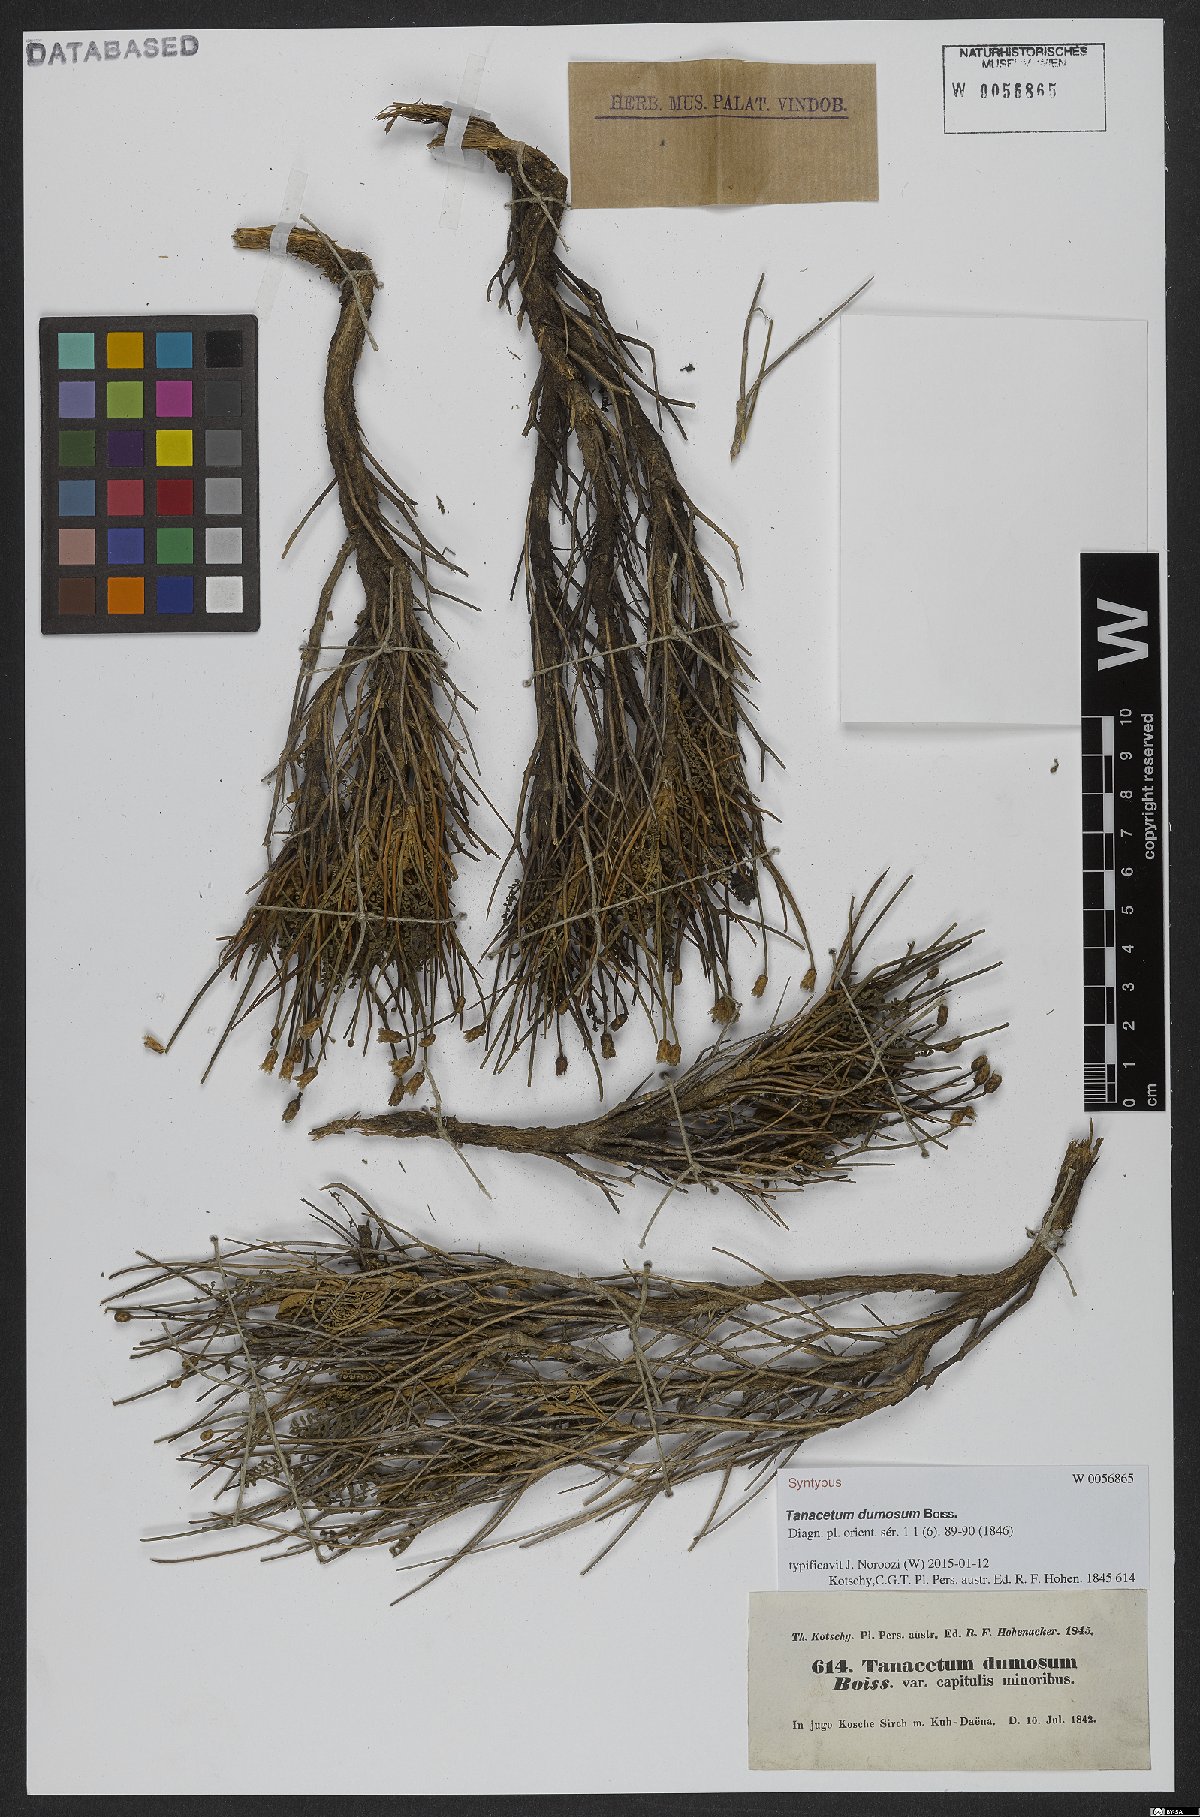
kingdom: Plantae
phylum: Tracheophyta
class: Magnoliopsida
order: Asterales
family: Asteraceae
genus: Tanacetum
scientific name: Tanacetum dumosum
